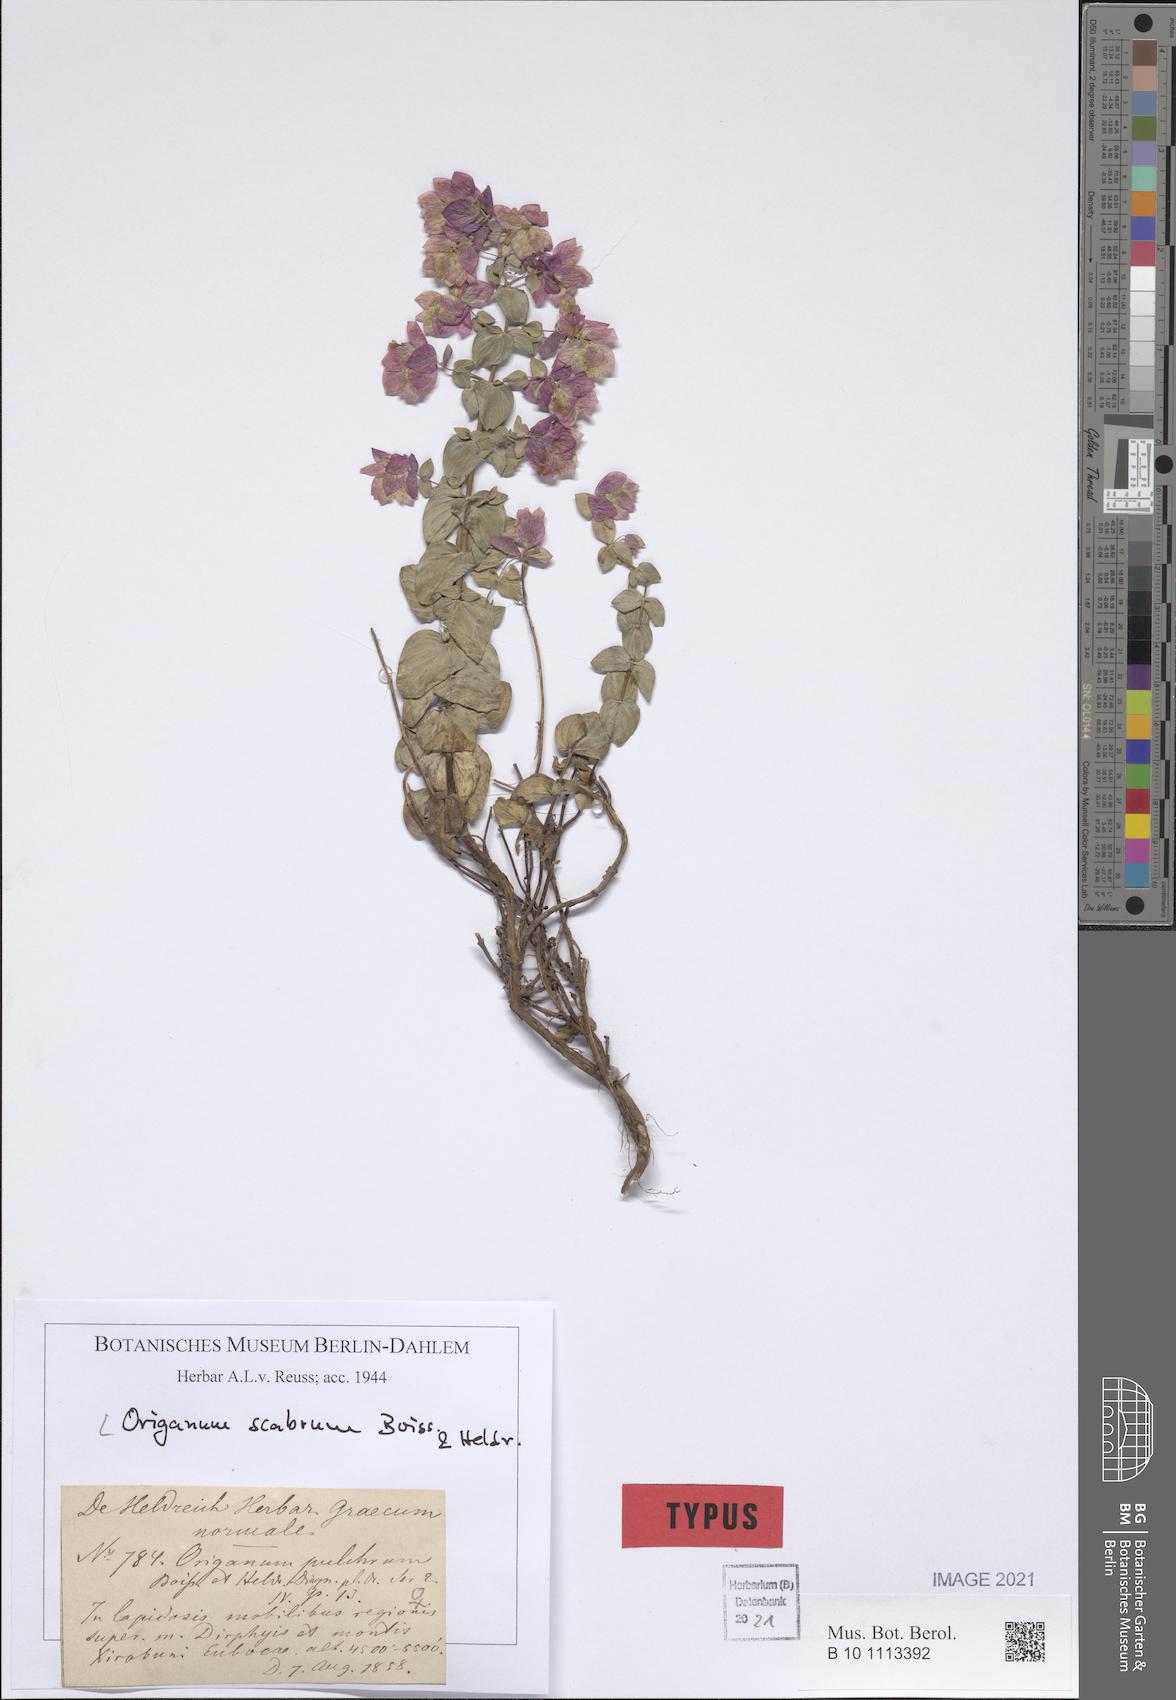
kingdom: Plantae
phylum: Tracheophyta
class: Magnoliopsida
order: Lamiales
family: Lamiaceae
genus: Origanum
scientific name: Origanum scabrum
